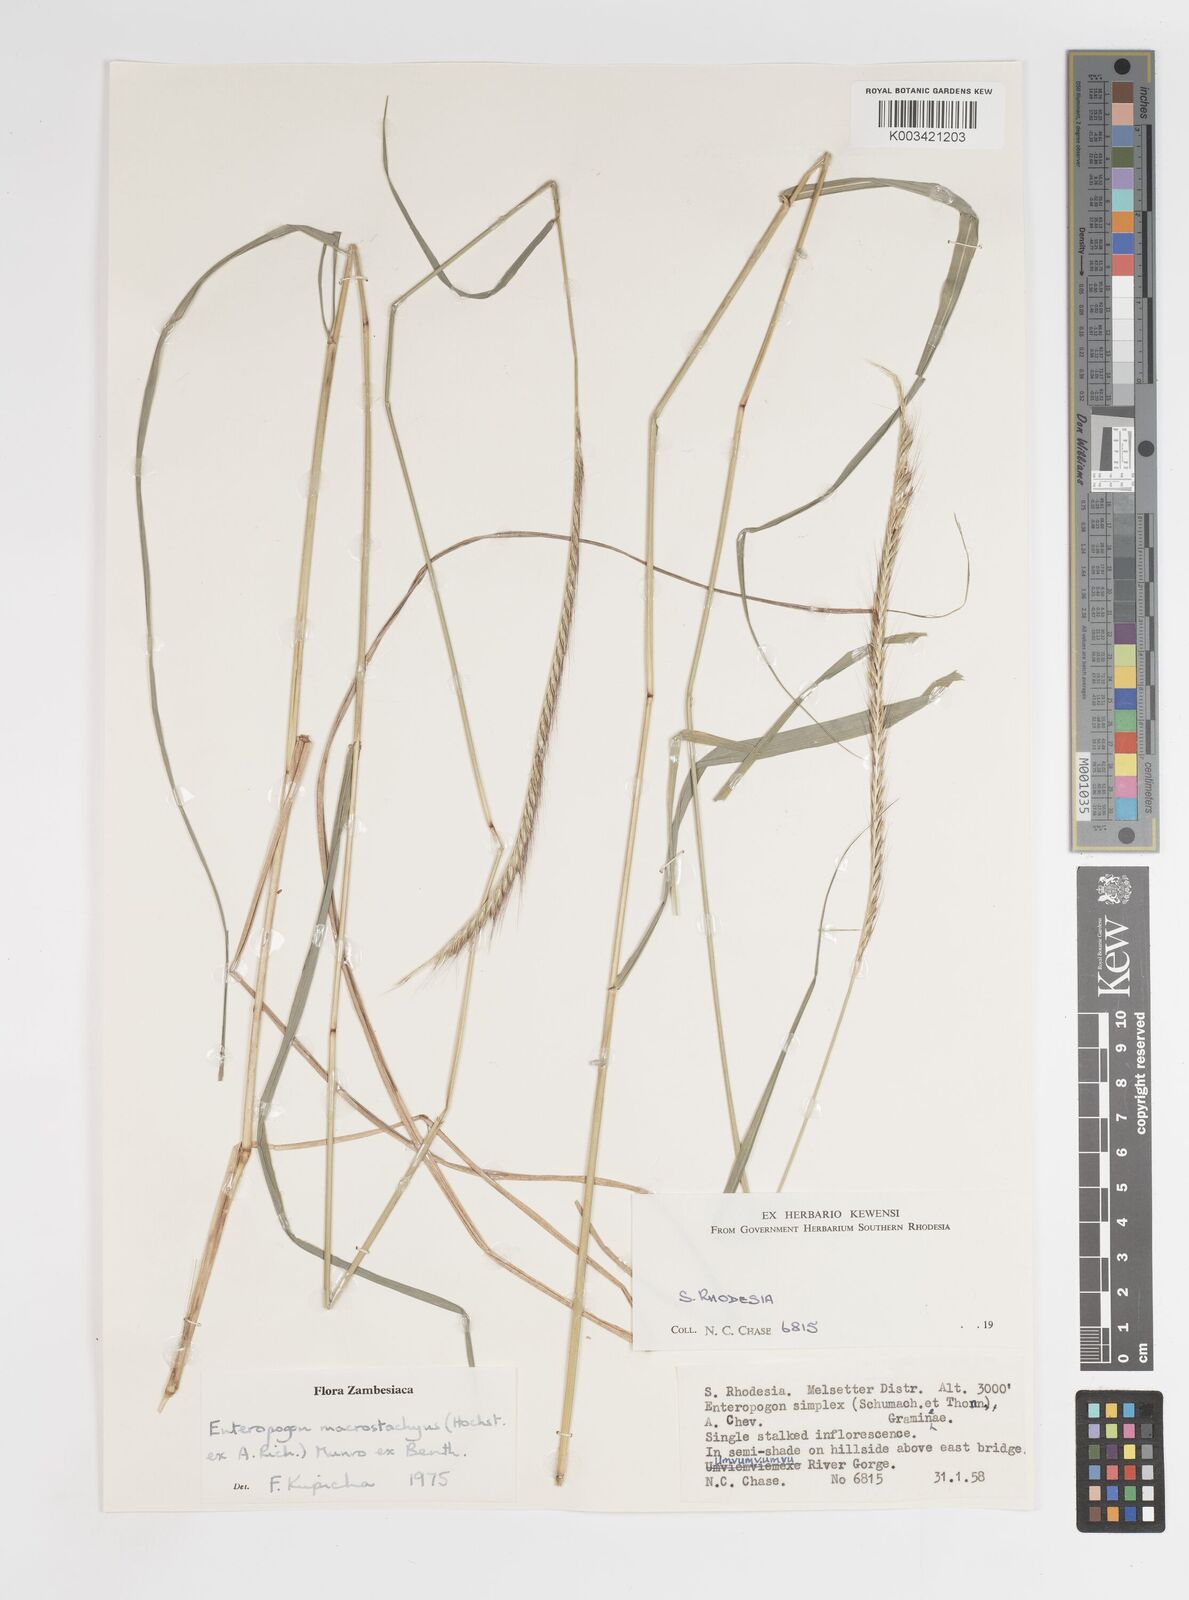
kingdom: Plantae
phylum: Tracheophyta
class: Liliopsida
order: Poales
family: Poaceae
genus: Enteropogon
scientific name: Enteropogon macrostachyus
